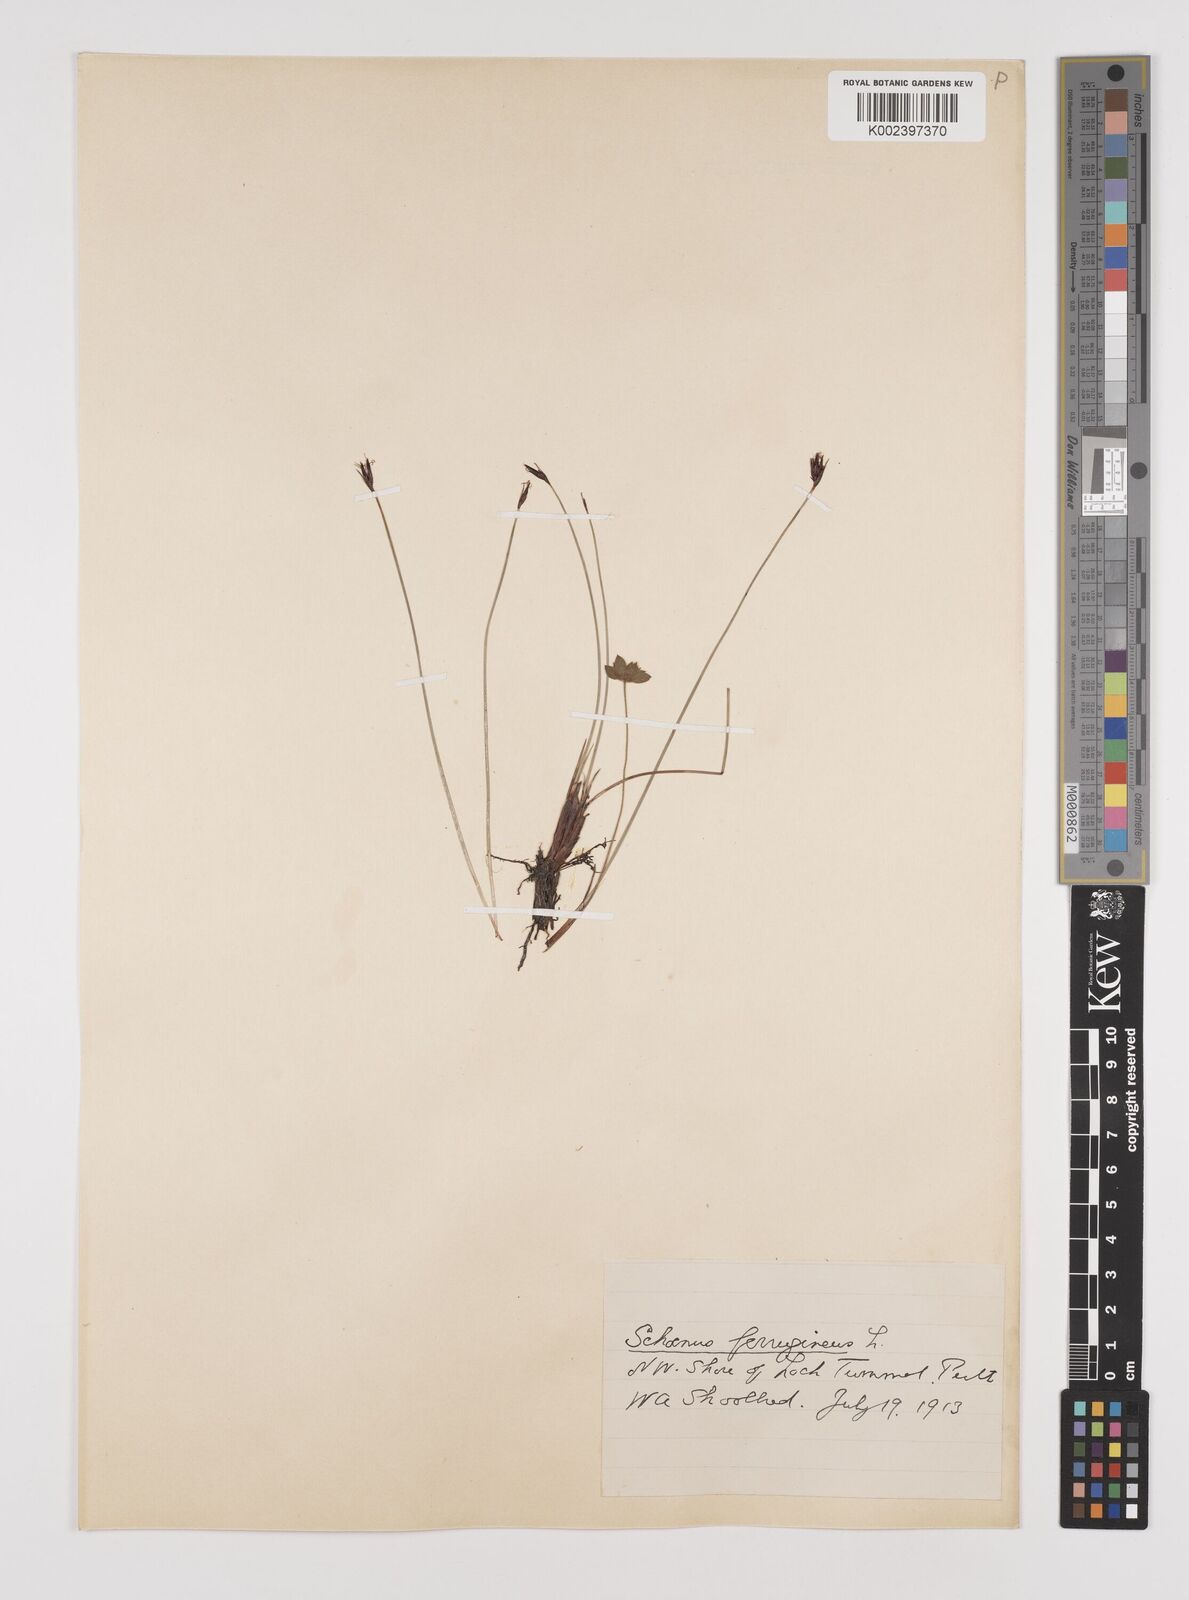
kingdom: Plantae
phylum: Tracheophyta
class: Liliopsida
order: Poales
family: Cyperaceae
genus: Schoenus
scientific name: Schoenus ferrugineus
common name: Brown bog-rush
